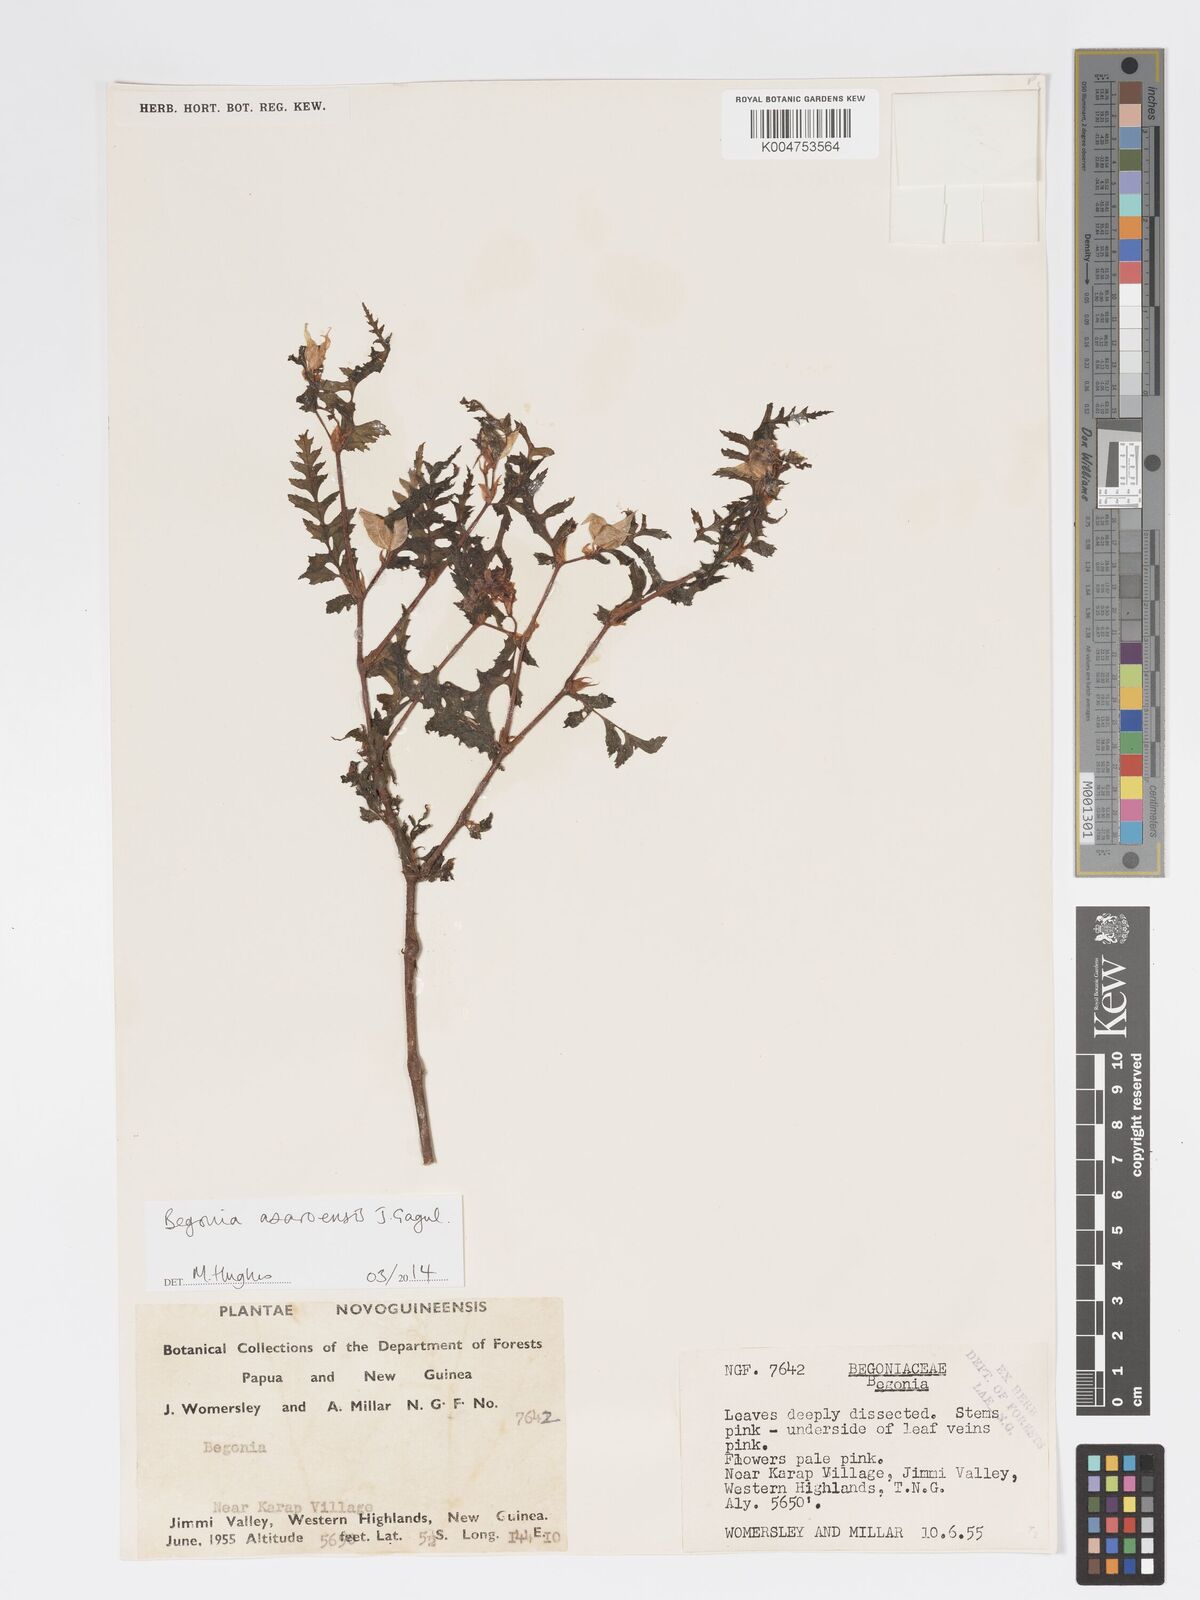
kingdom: Plantae
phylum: Tracheophyta
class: Magnoliopsida
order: Cucurbitales
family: Begoniaceae
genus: Begonia
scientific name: Begonia asaroensis
